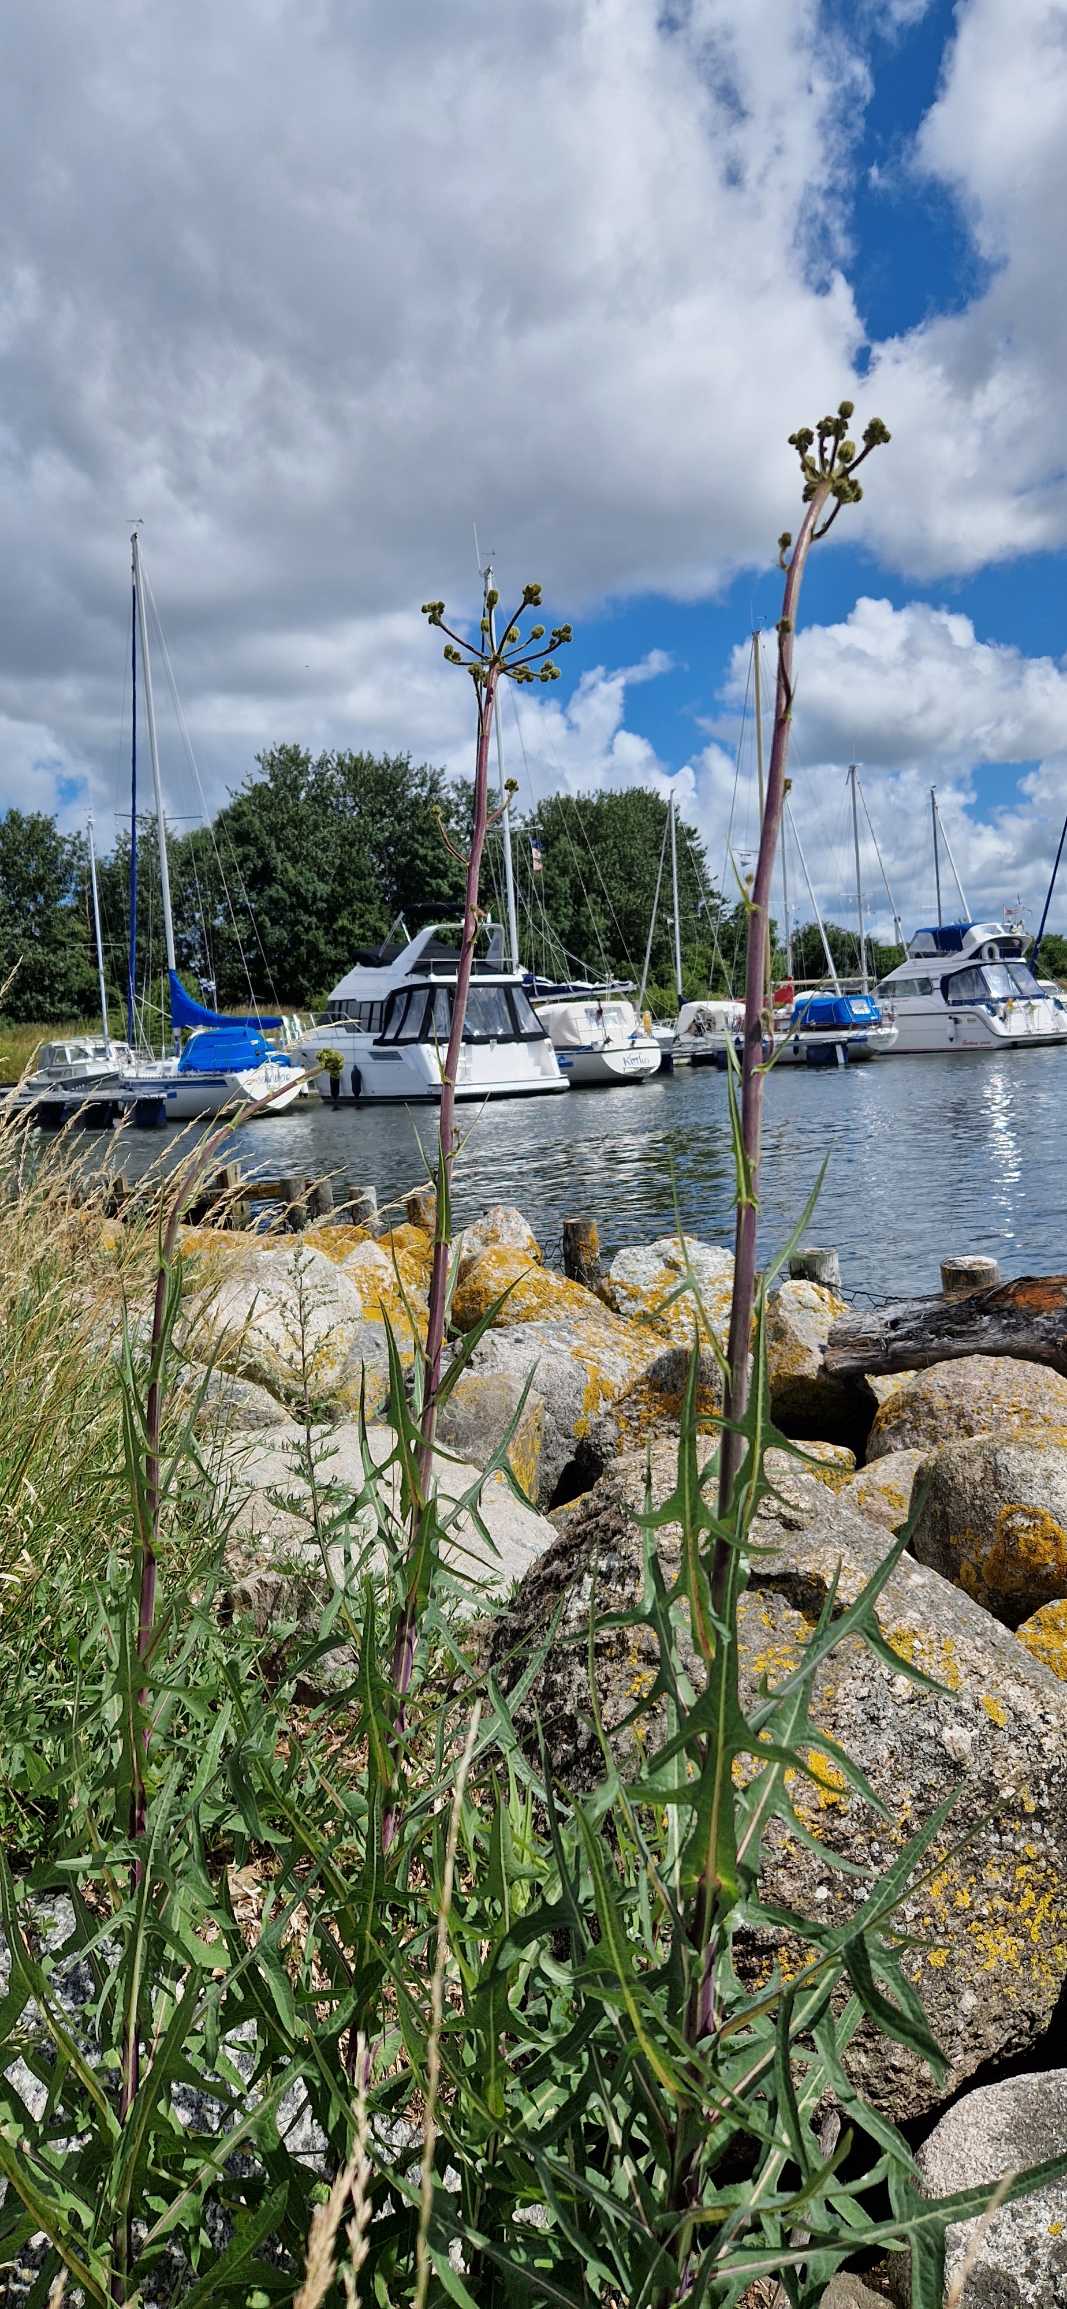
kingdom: Plantae
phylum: Tracheophyta
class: Magnoliopsida
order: Asterales
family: Asteraceae
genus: Sonchus
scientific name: Sonchus palustris
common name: Kær-svinemælk
